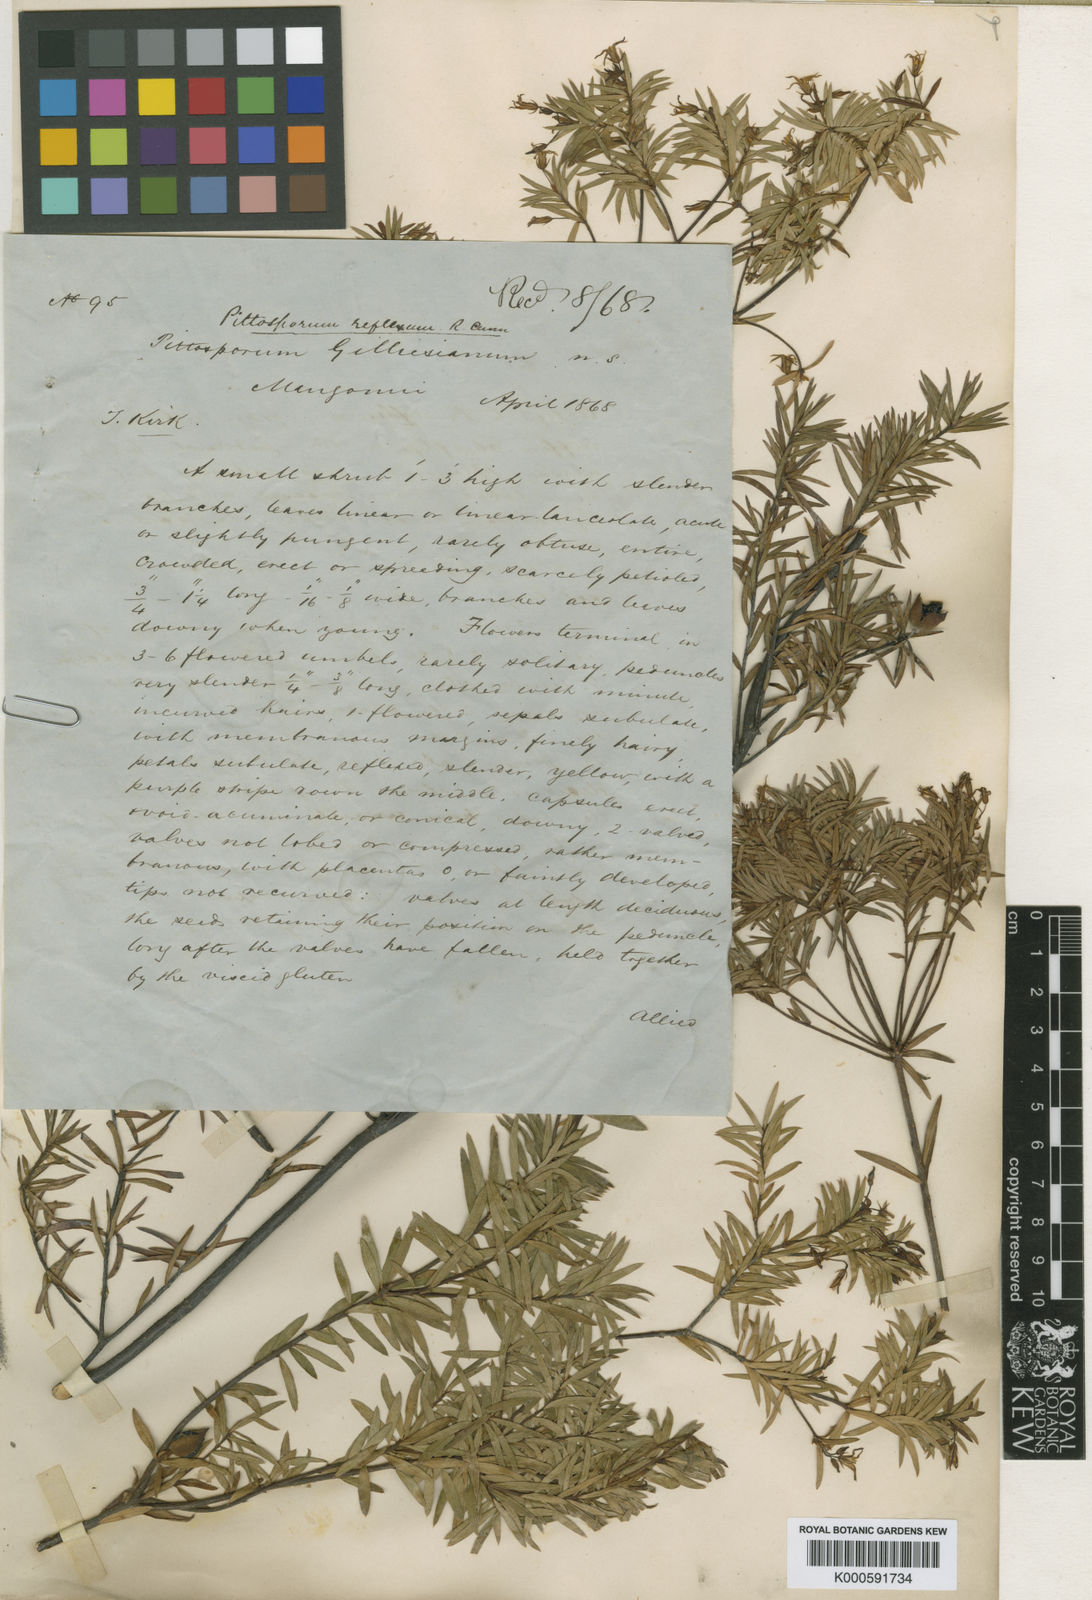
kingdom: Plantae
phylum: Tracheophyta
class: Magnoliopsida
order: Apiales
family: Pittosporaceae
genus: Pittosporum
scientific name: Pittosporum
